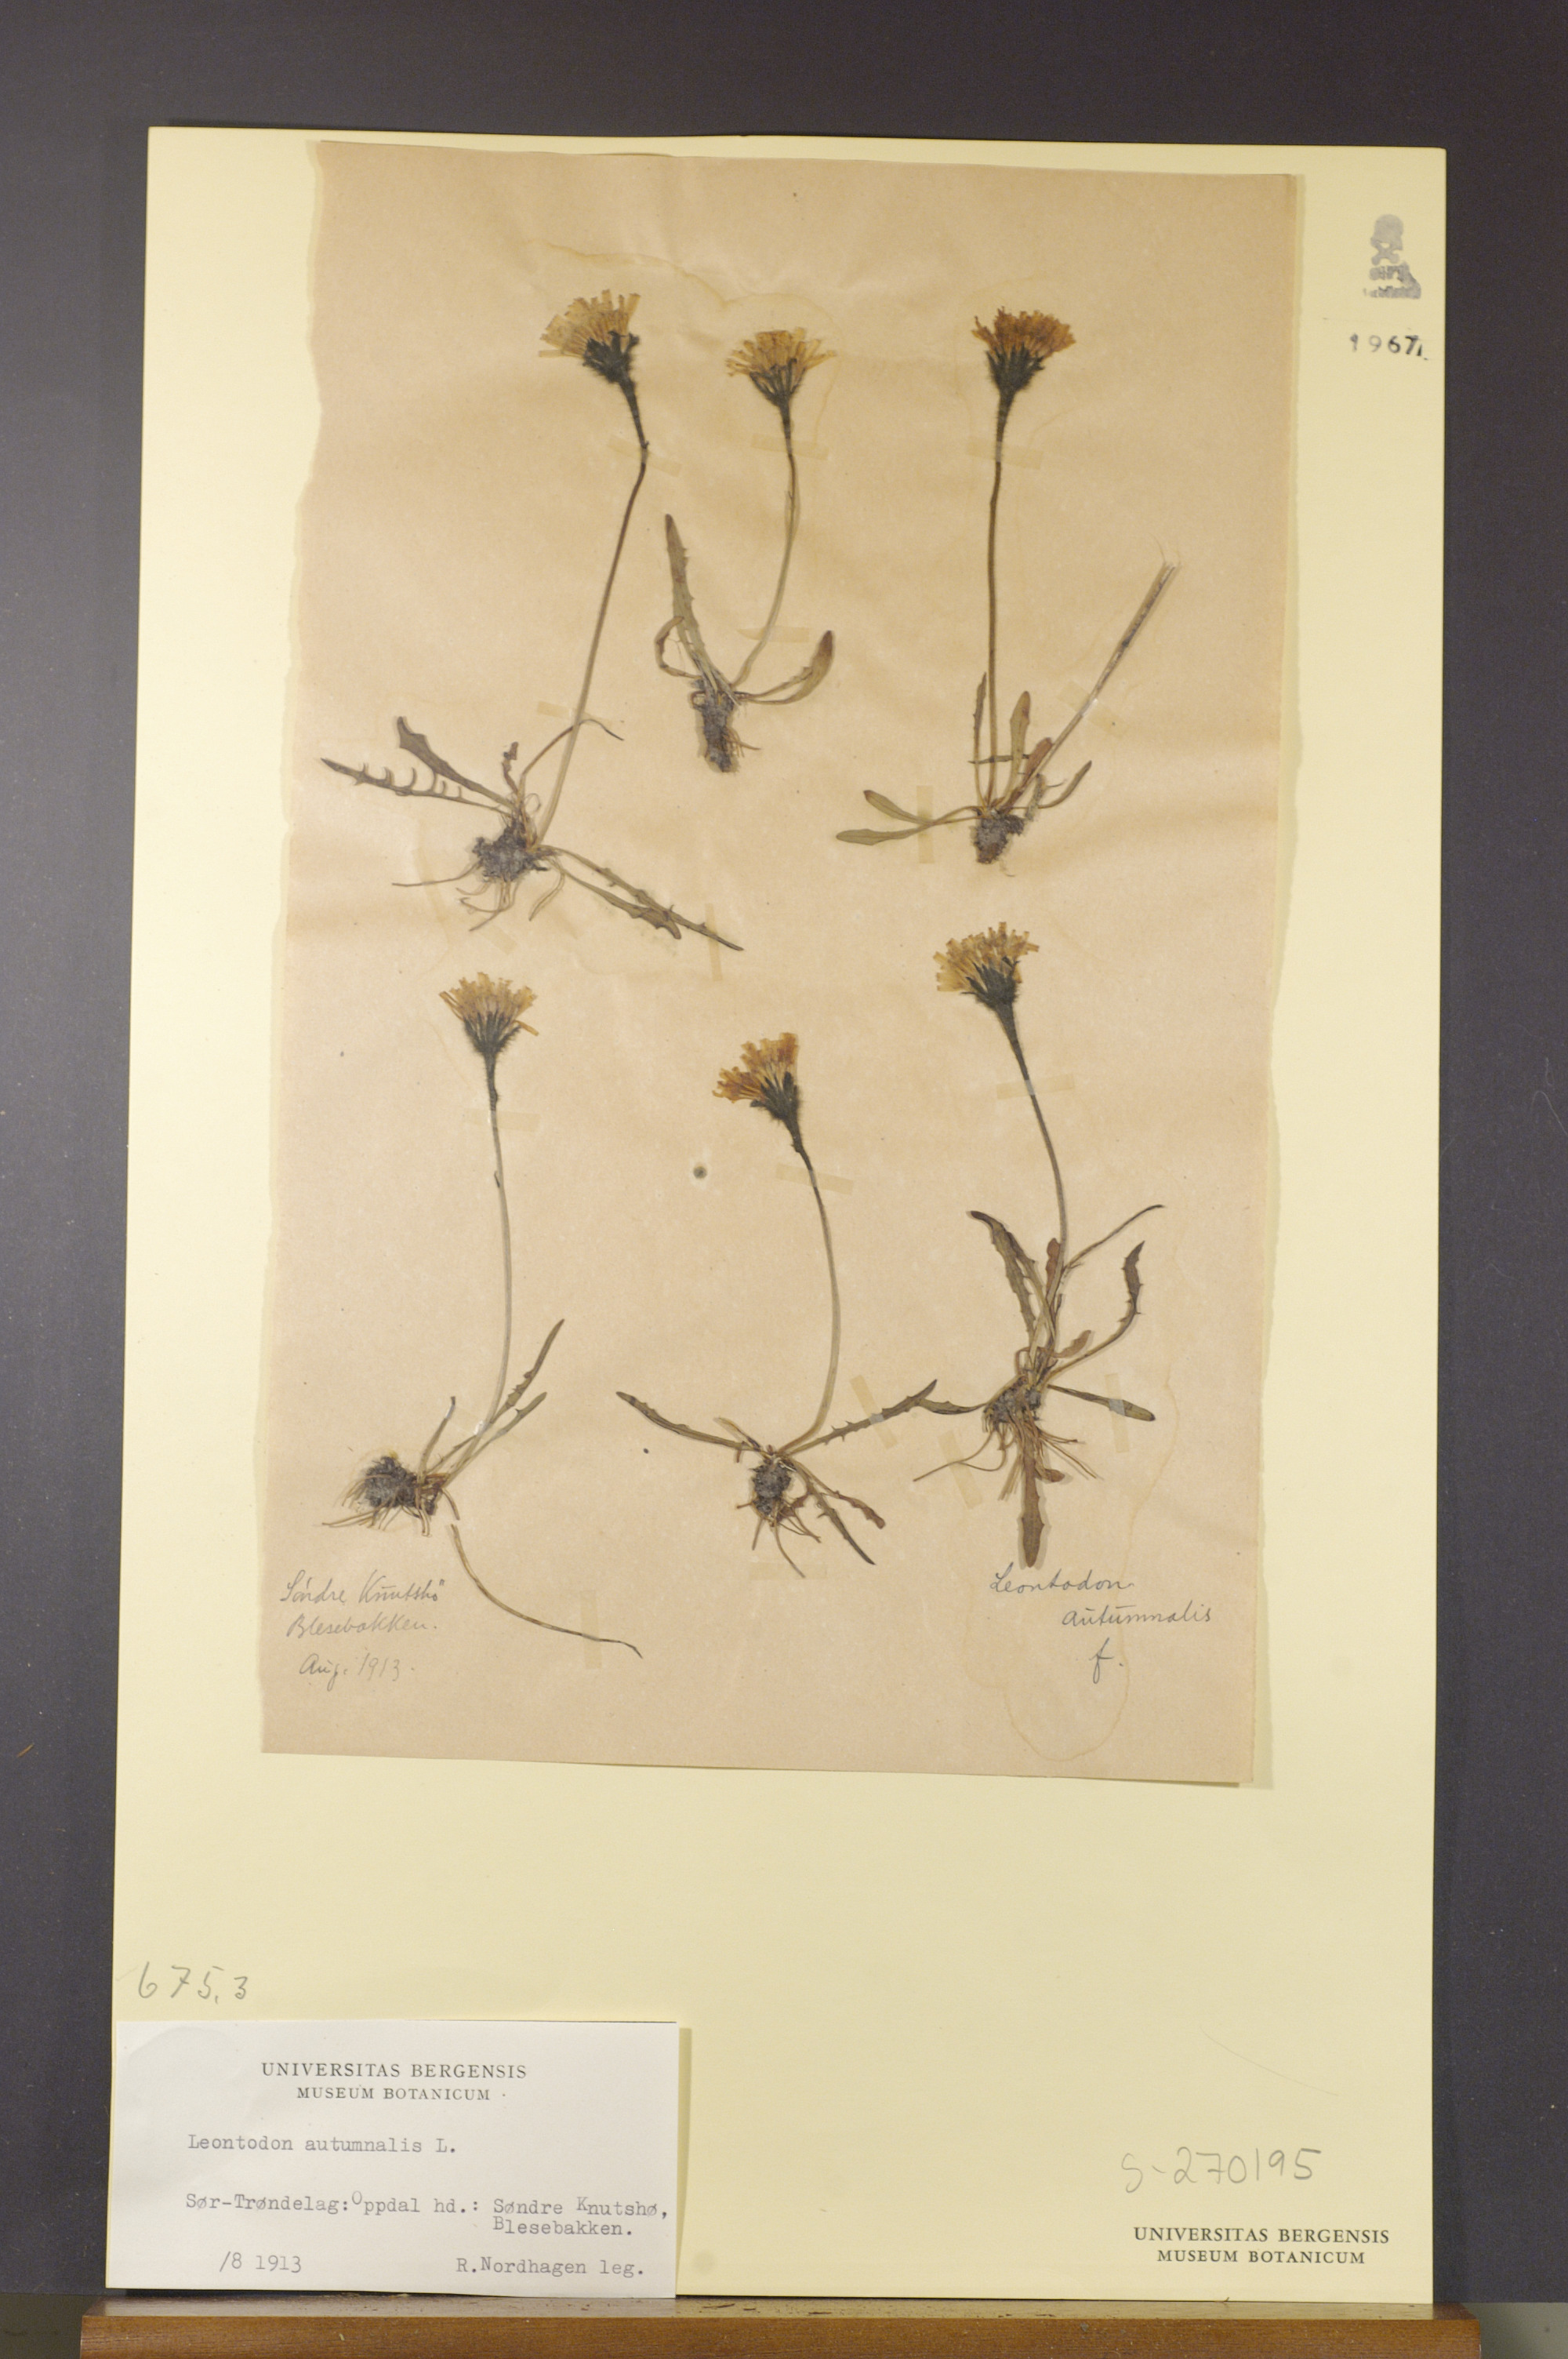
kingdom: Plantae
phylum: Tracheophyta
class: Magnoliopsida
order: Asterales
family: Asteraceae
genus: Scorzoneroides
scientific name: Scorzoneroides autumnalis
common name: Autumn hawkbit
